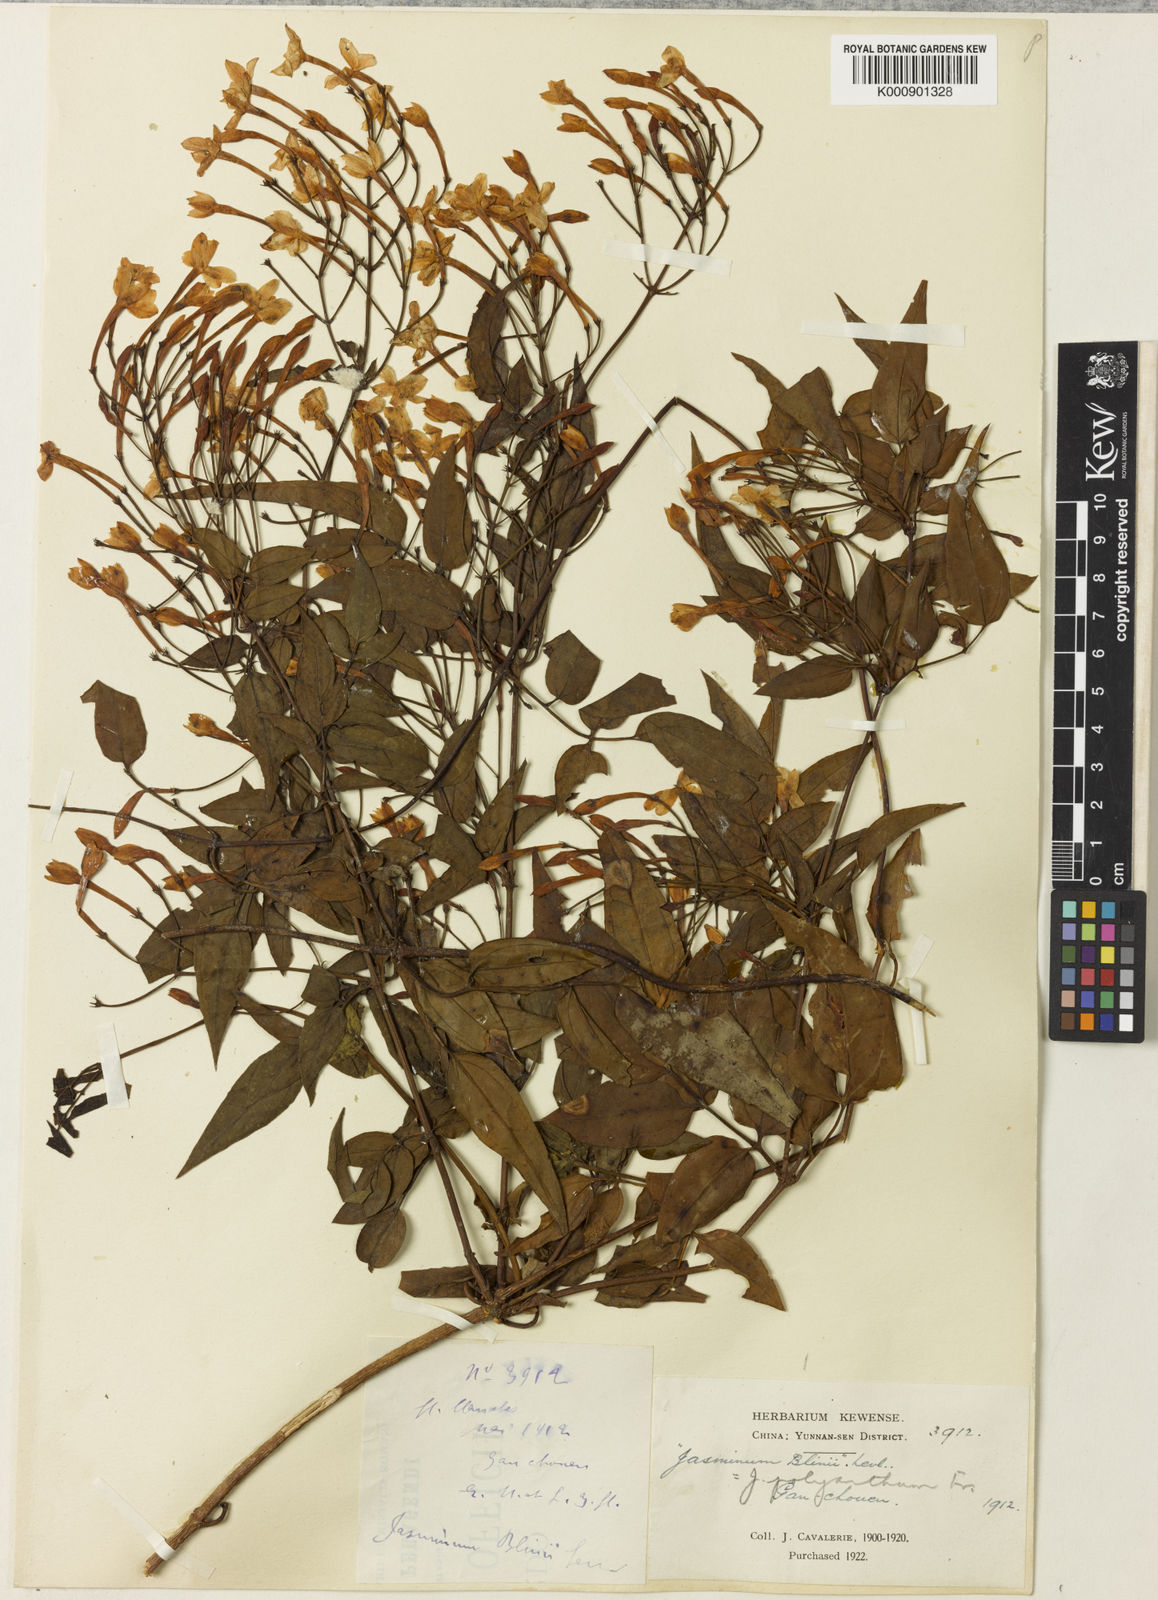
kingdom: Plantae
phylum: Tracheophyta
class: Magnoliopsida
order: Lamiales
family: Oleaceae
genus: Jasminum
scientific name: Jasminum polyanthum
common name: Pink jasmine
